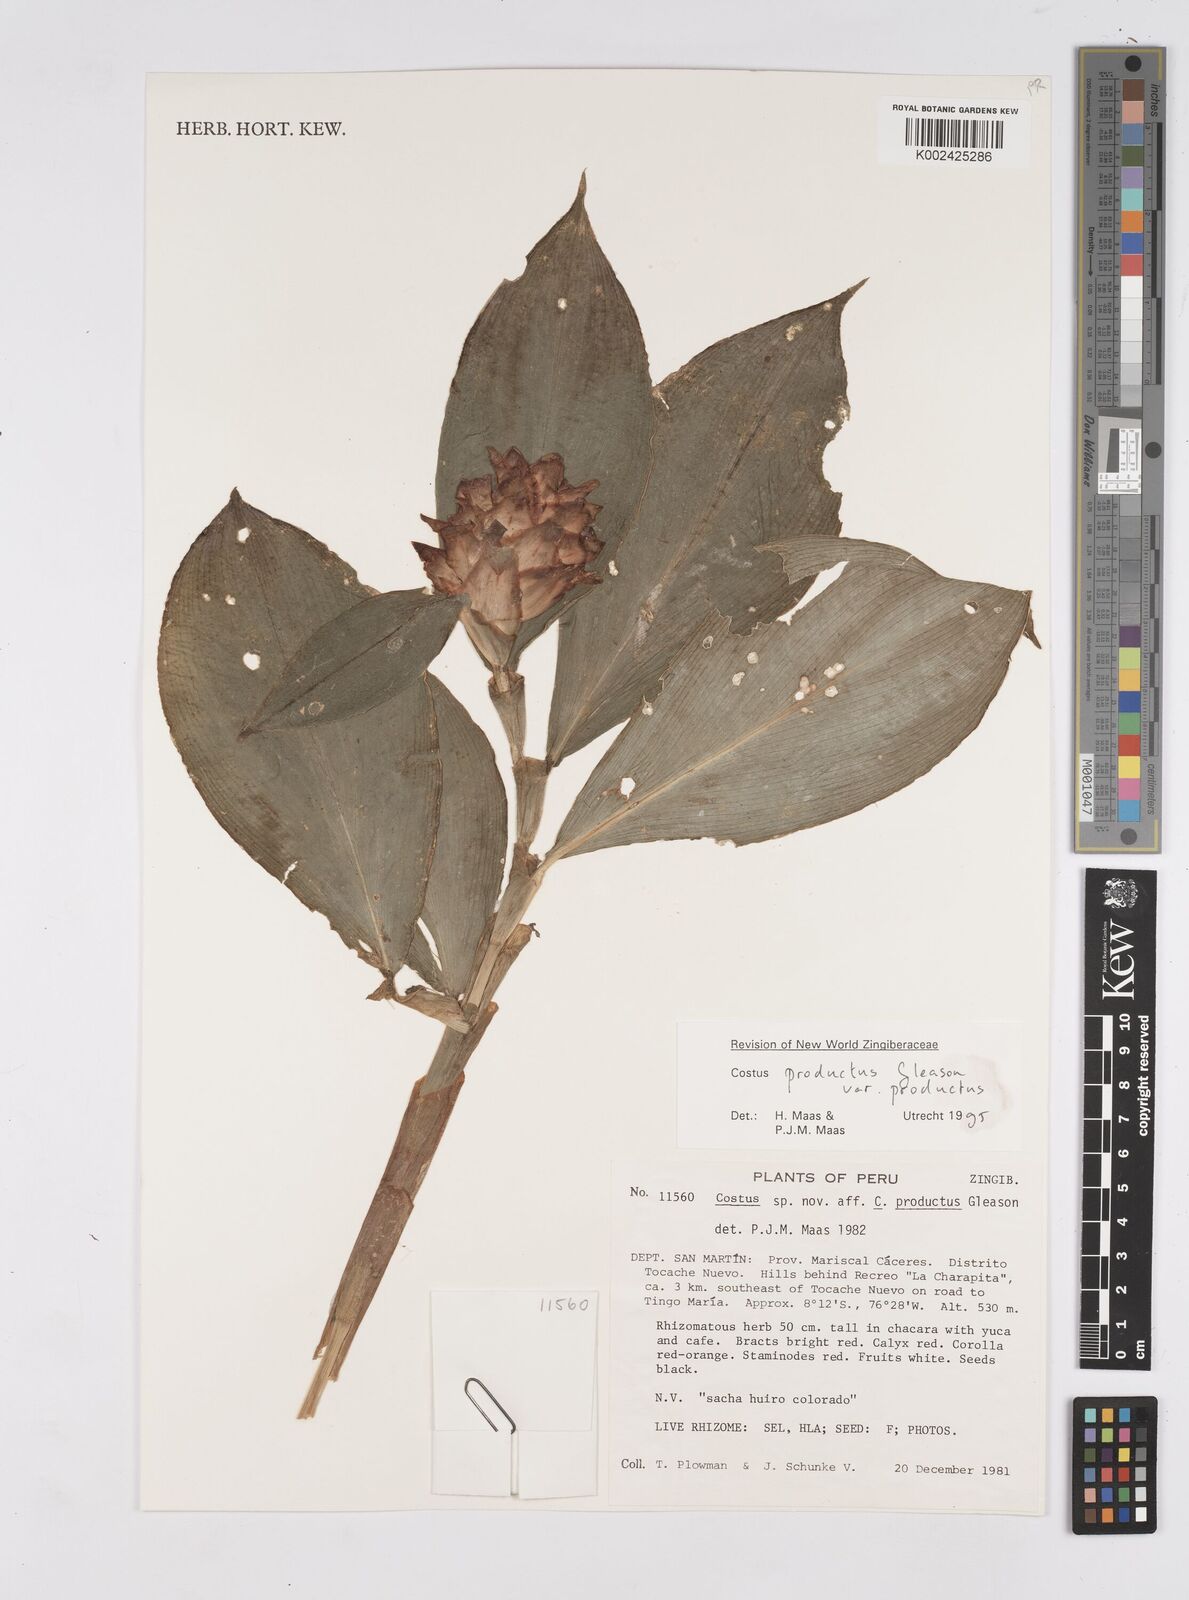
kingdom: Plantae
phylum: Tracheophyta
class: Liliopsida
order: Zingiberales
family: Costaceae
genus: Costus
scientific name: Costus productus
